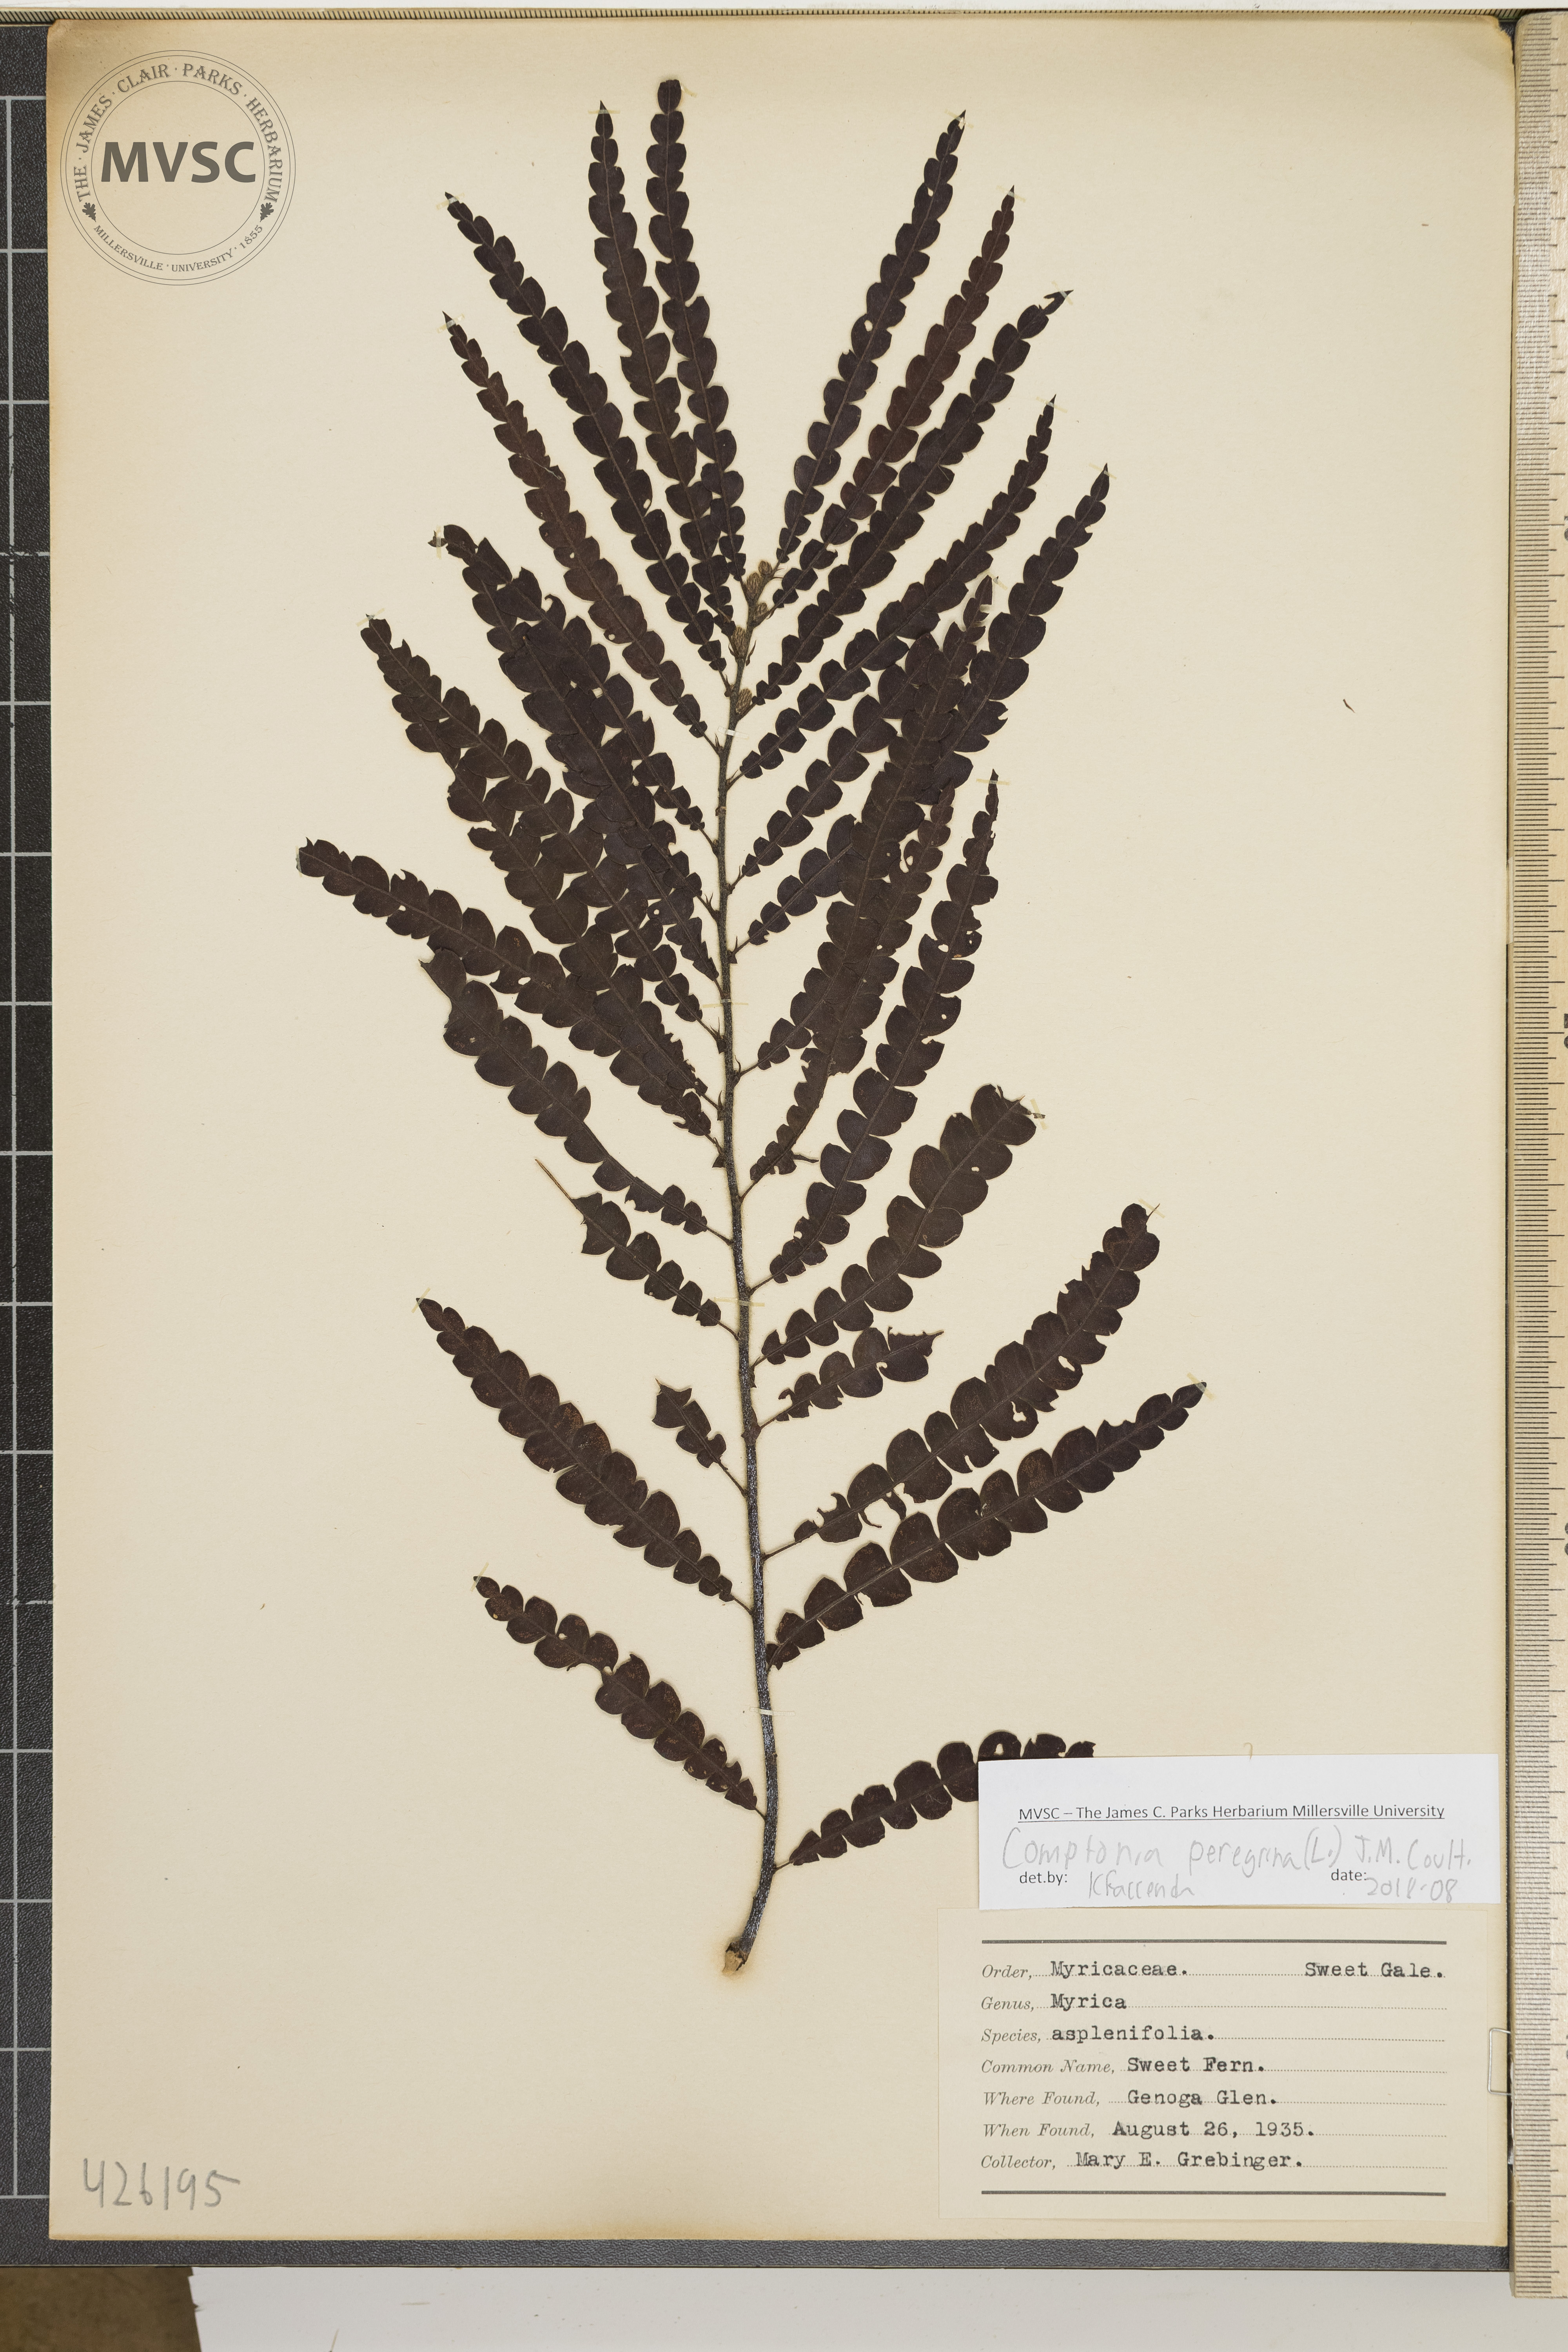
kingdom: Plantae
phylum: Tracheophyta
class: Magnoliopsida
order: Fagales
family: Myricaceae
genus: Comptonia
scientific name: Comptonia peregrina
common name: Sweet fern
